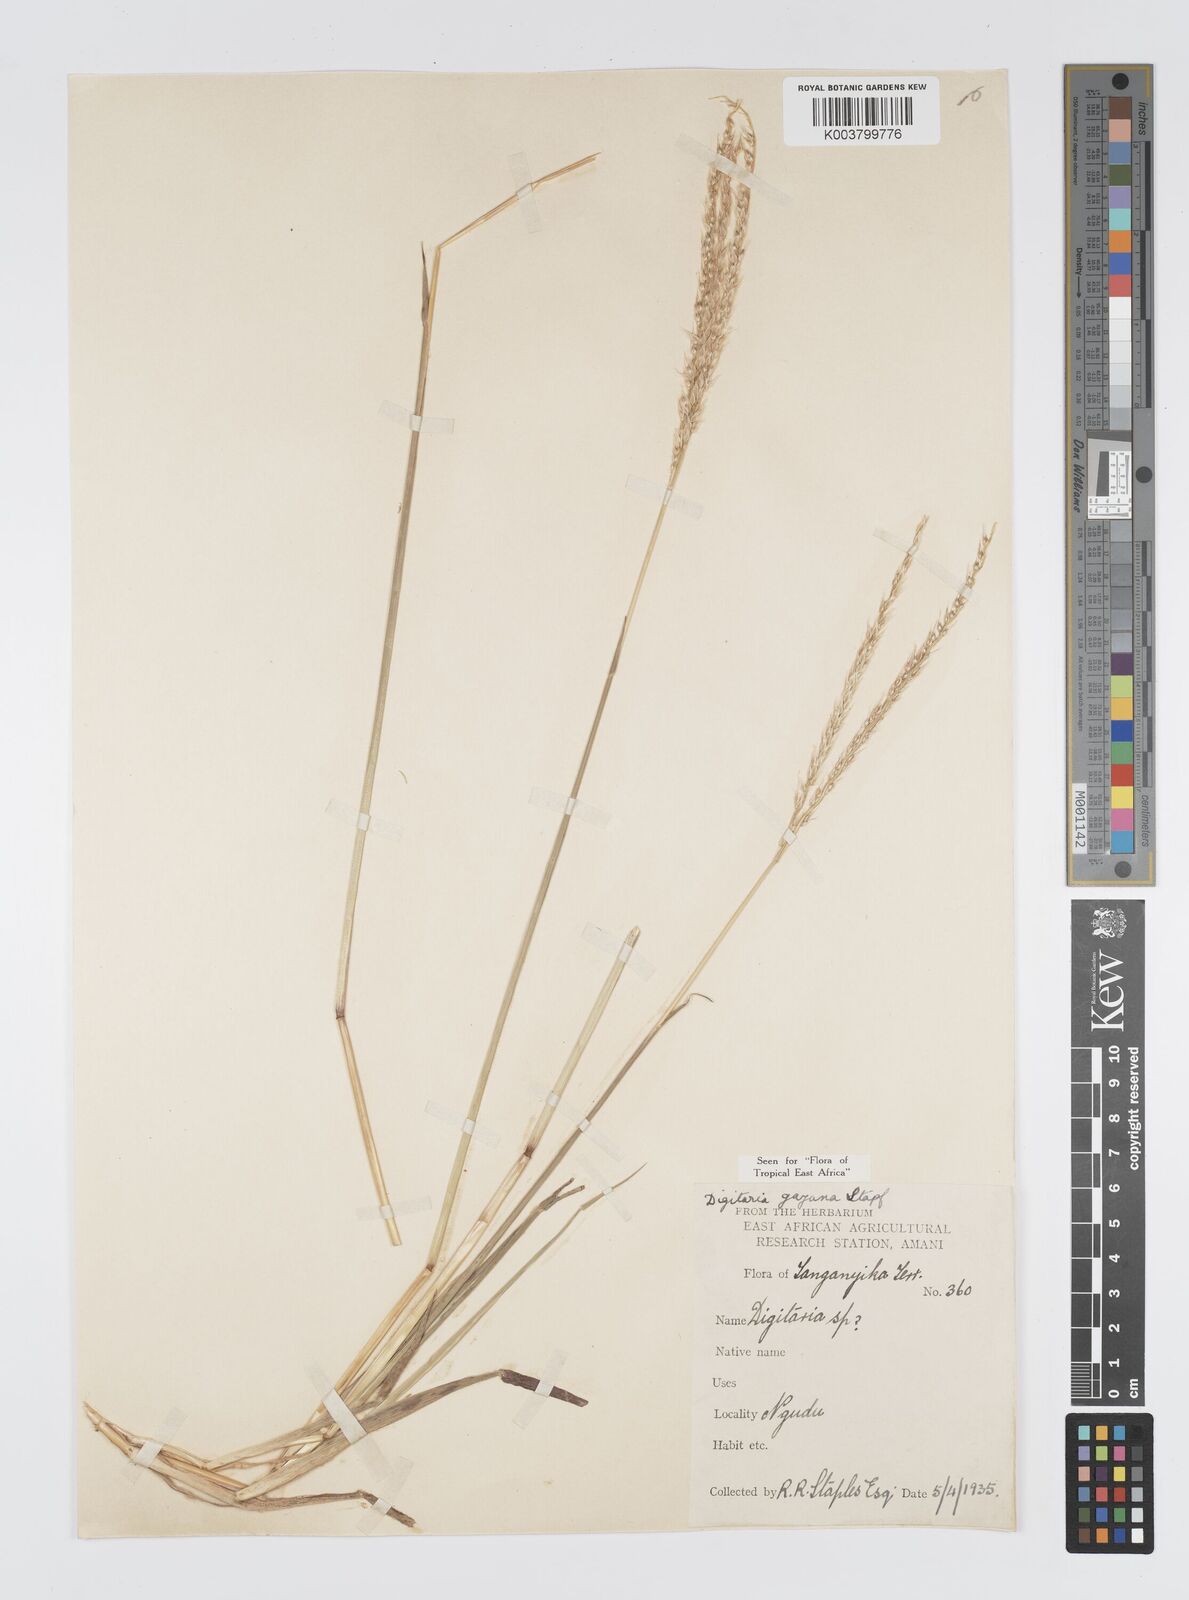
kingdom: Plantae
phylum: Tracheophyta
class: Liliopsida
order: Poales
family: Poaceae
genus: Digitaria
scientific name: Digitaria gayana
